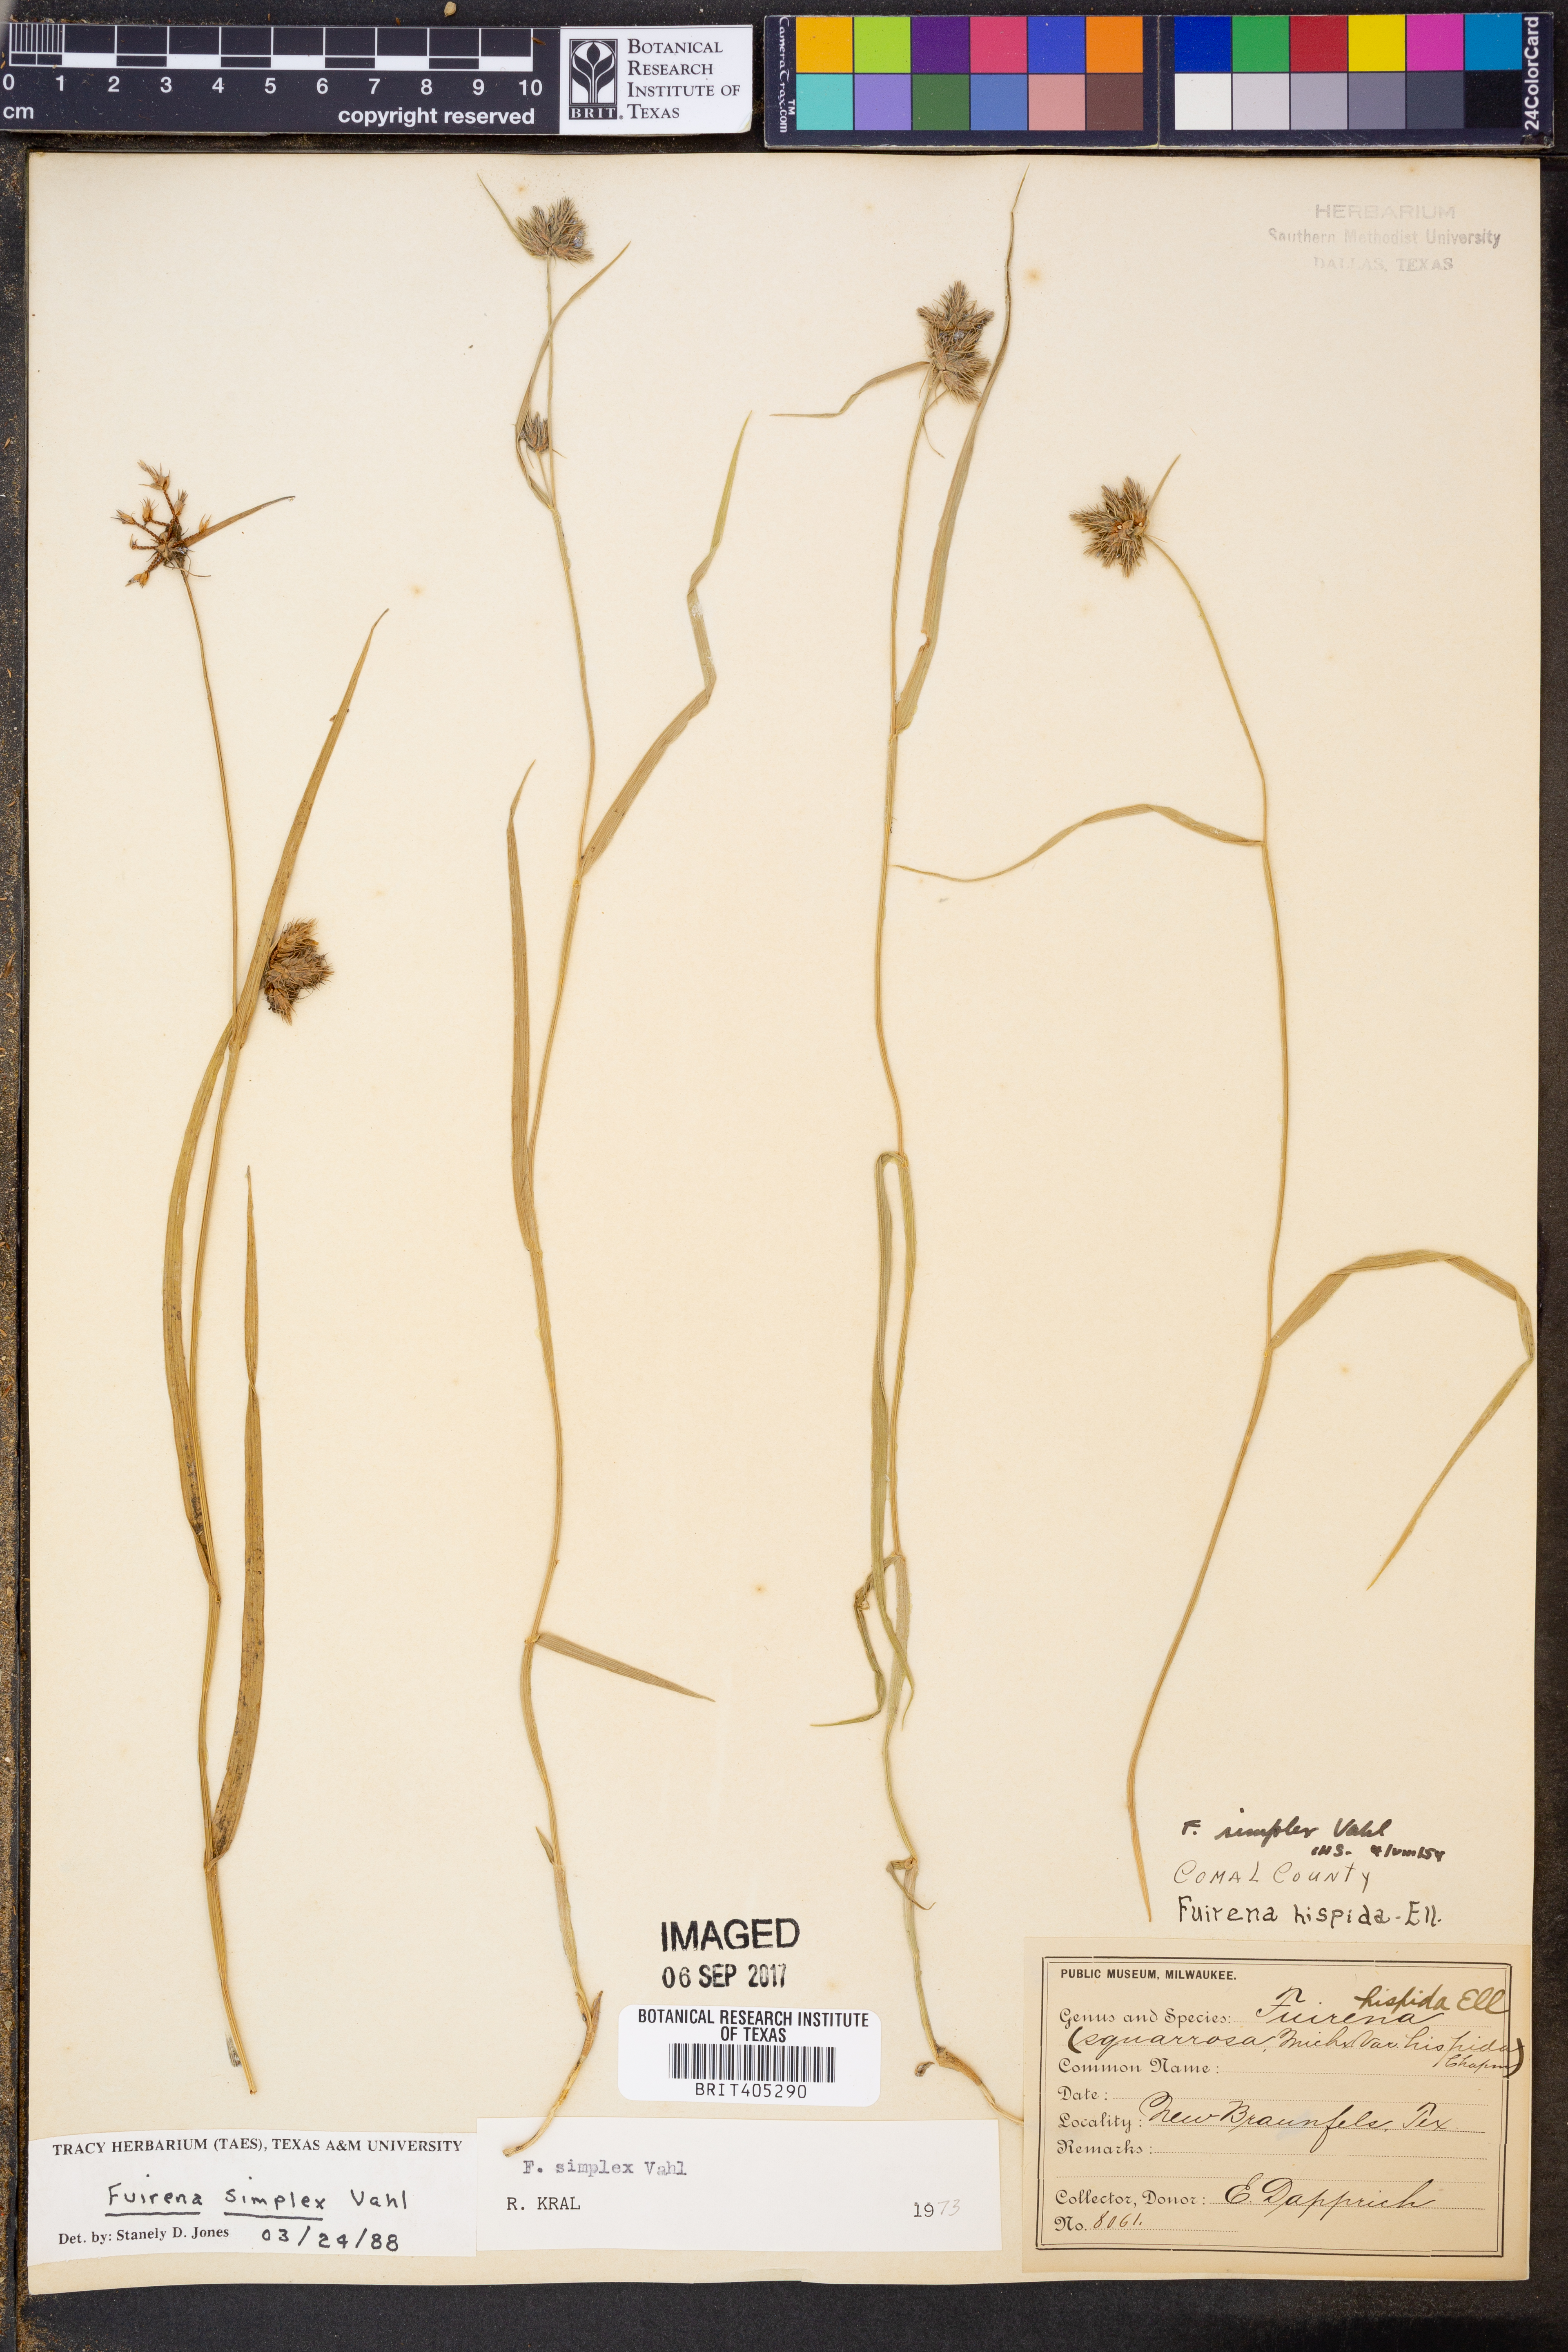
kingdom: Plantae
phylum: Tracheophyta
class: Liliopsida
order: Poales
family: Cyperaceae
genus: Fuirena
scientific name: Fuirena simplex
